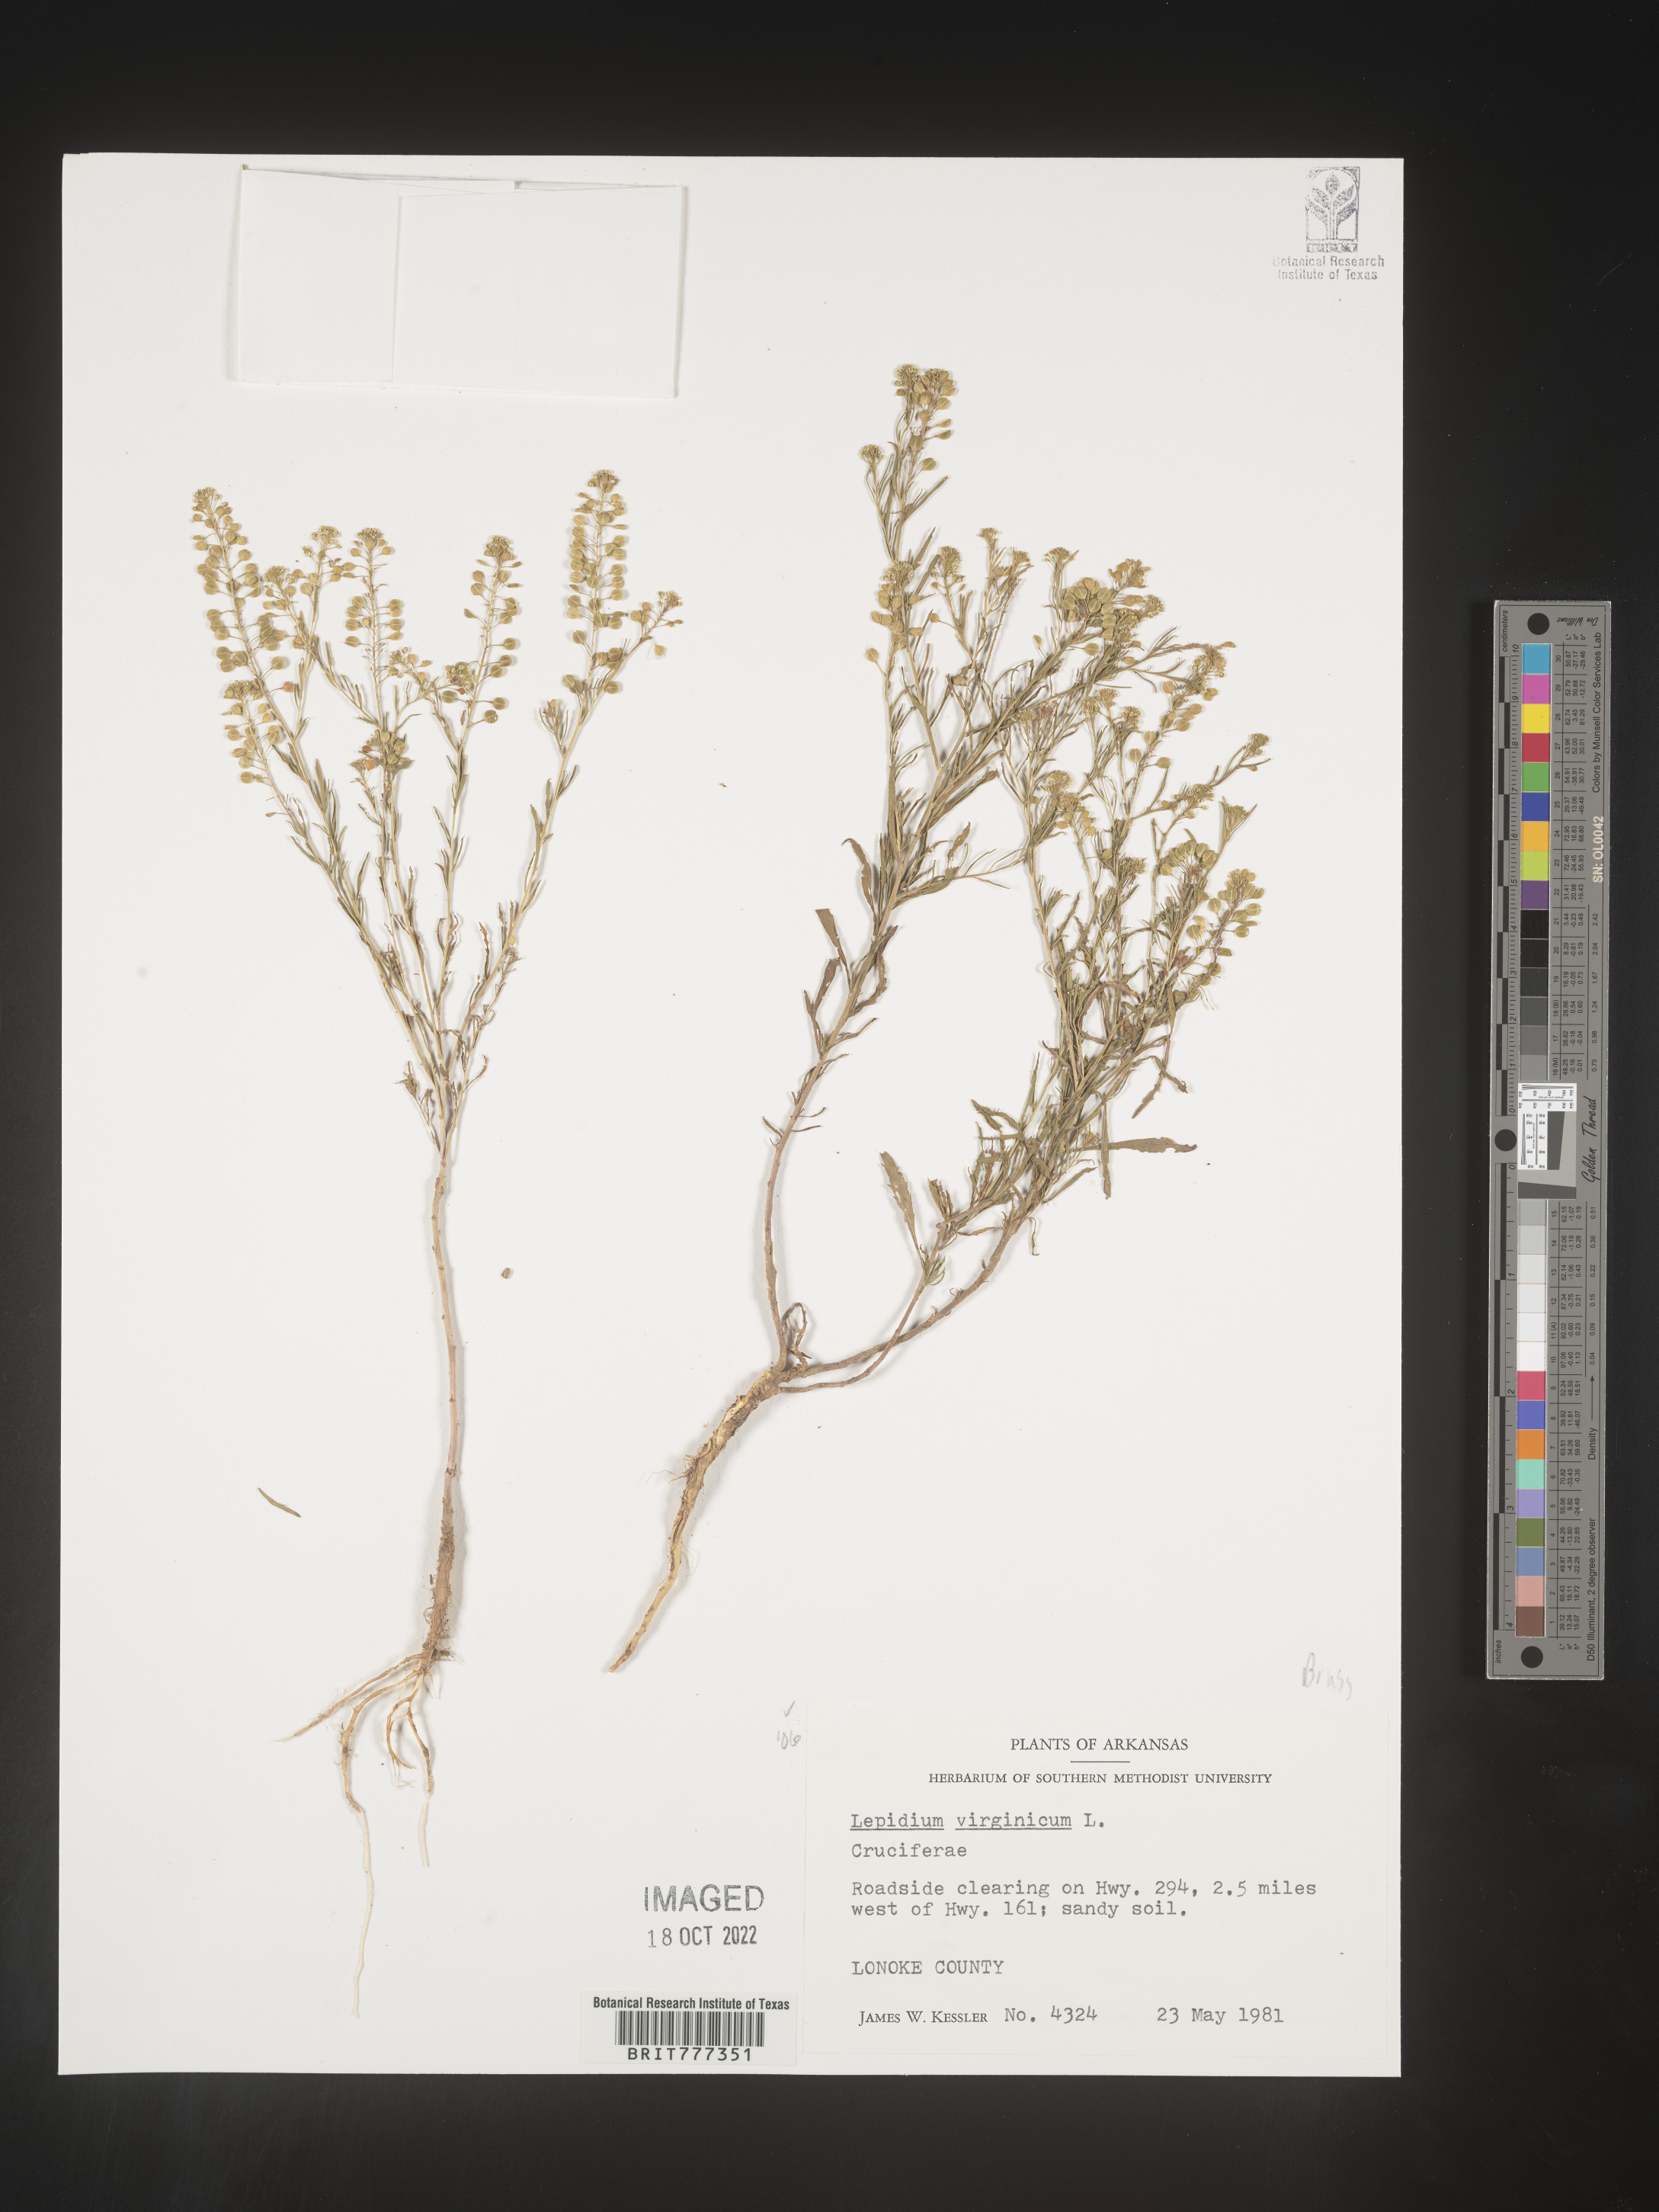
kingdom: Plantae
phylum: Tracheophyta
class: Magnoliopsida
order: Brassicales
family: Brassicaceae
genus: Lepidium
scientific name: Lepidium virginicum
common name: Least pepperwort
